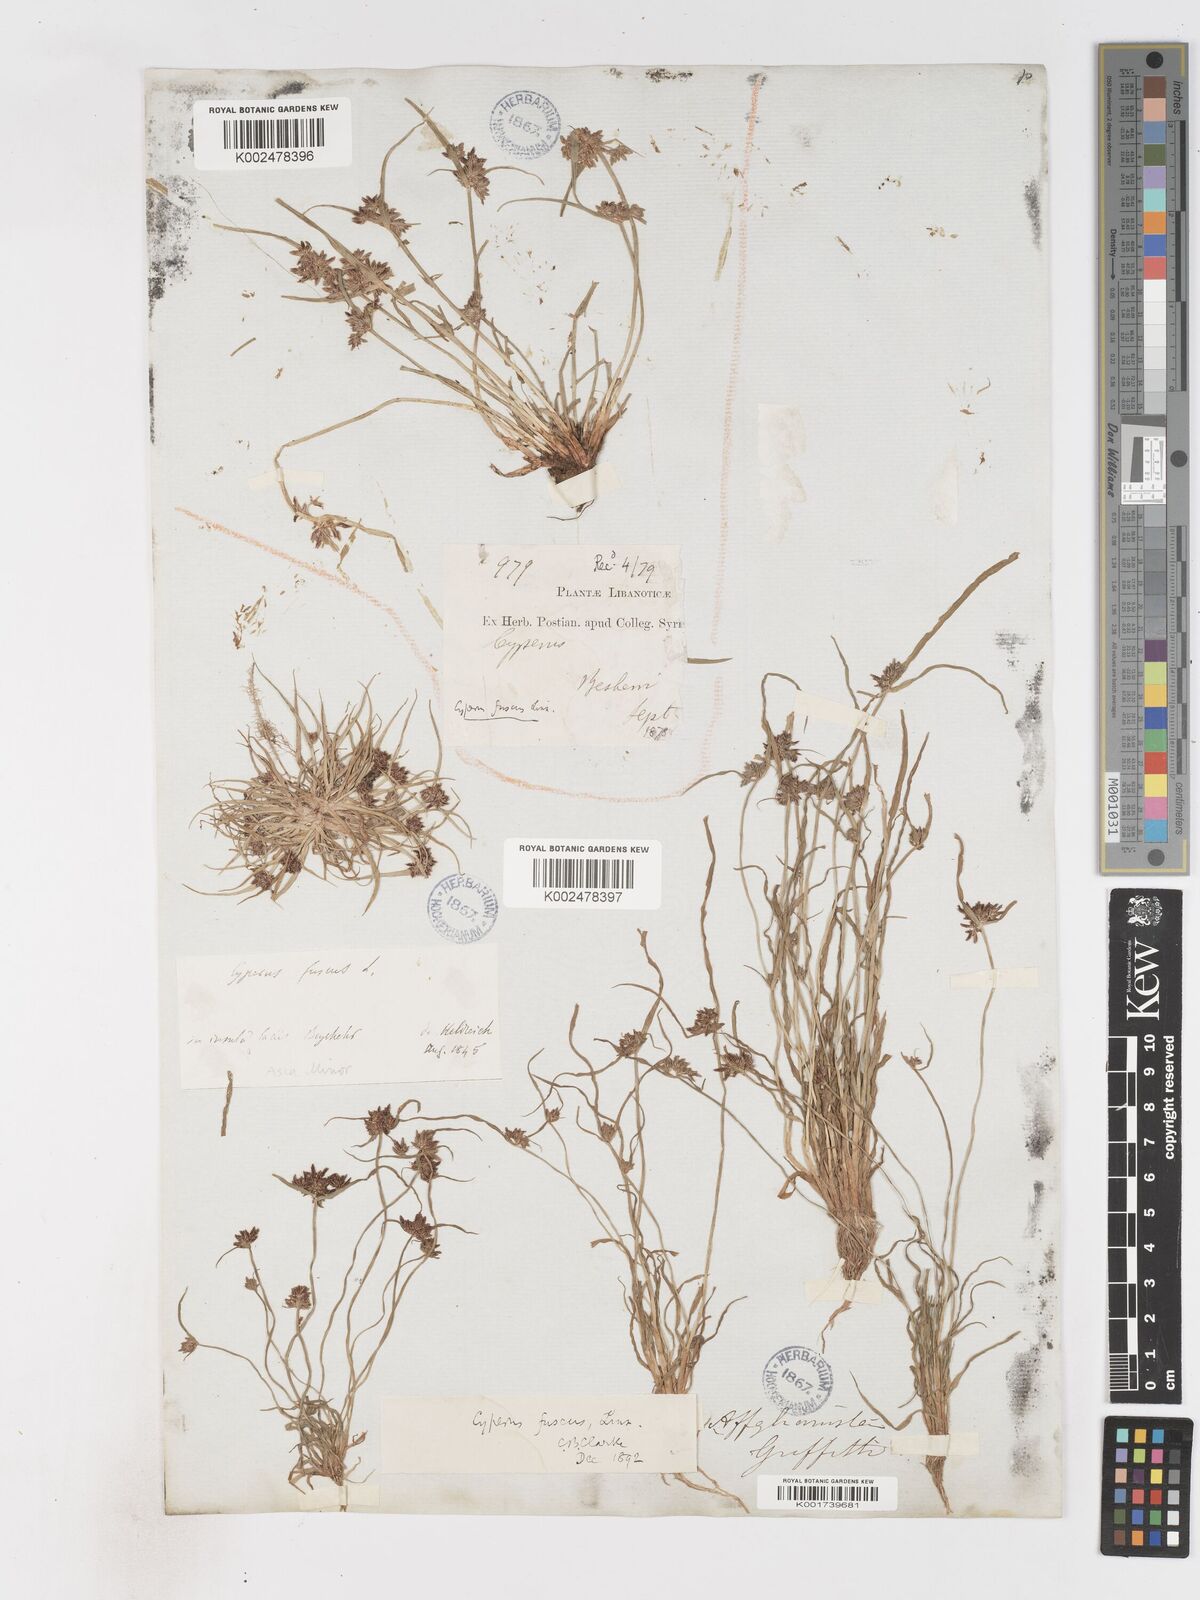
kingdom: Plantae
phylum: Tracheophyta
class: Liliopsida
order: Poales
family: Cyperaceae
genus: Cyperus
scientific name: Cyperus fuscus
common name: Brown galingale
